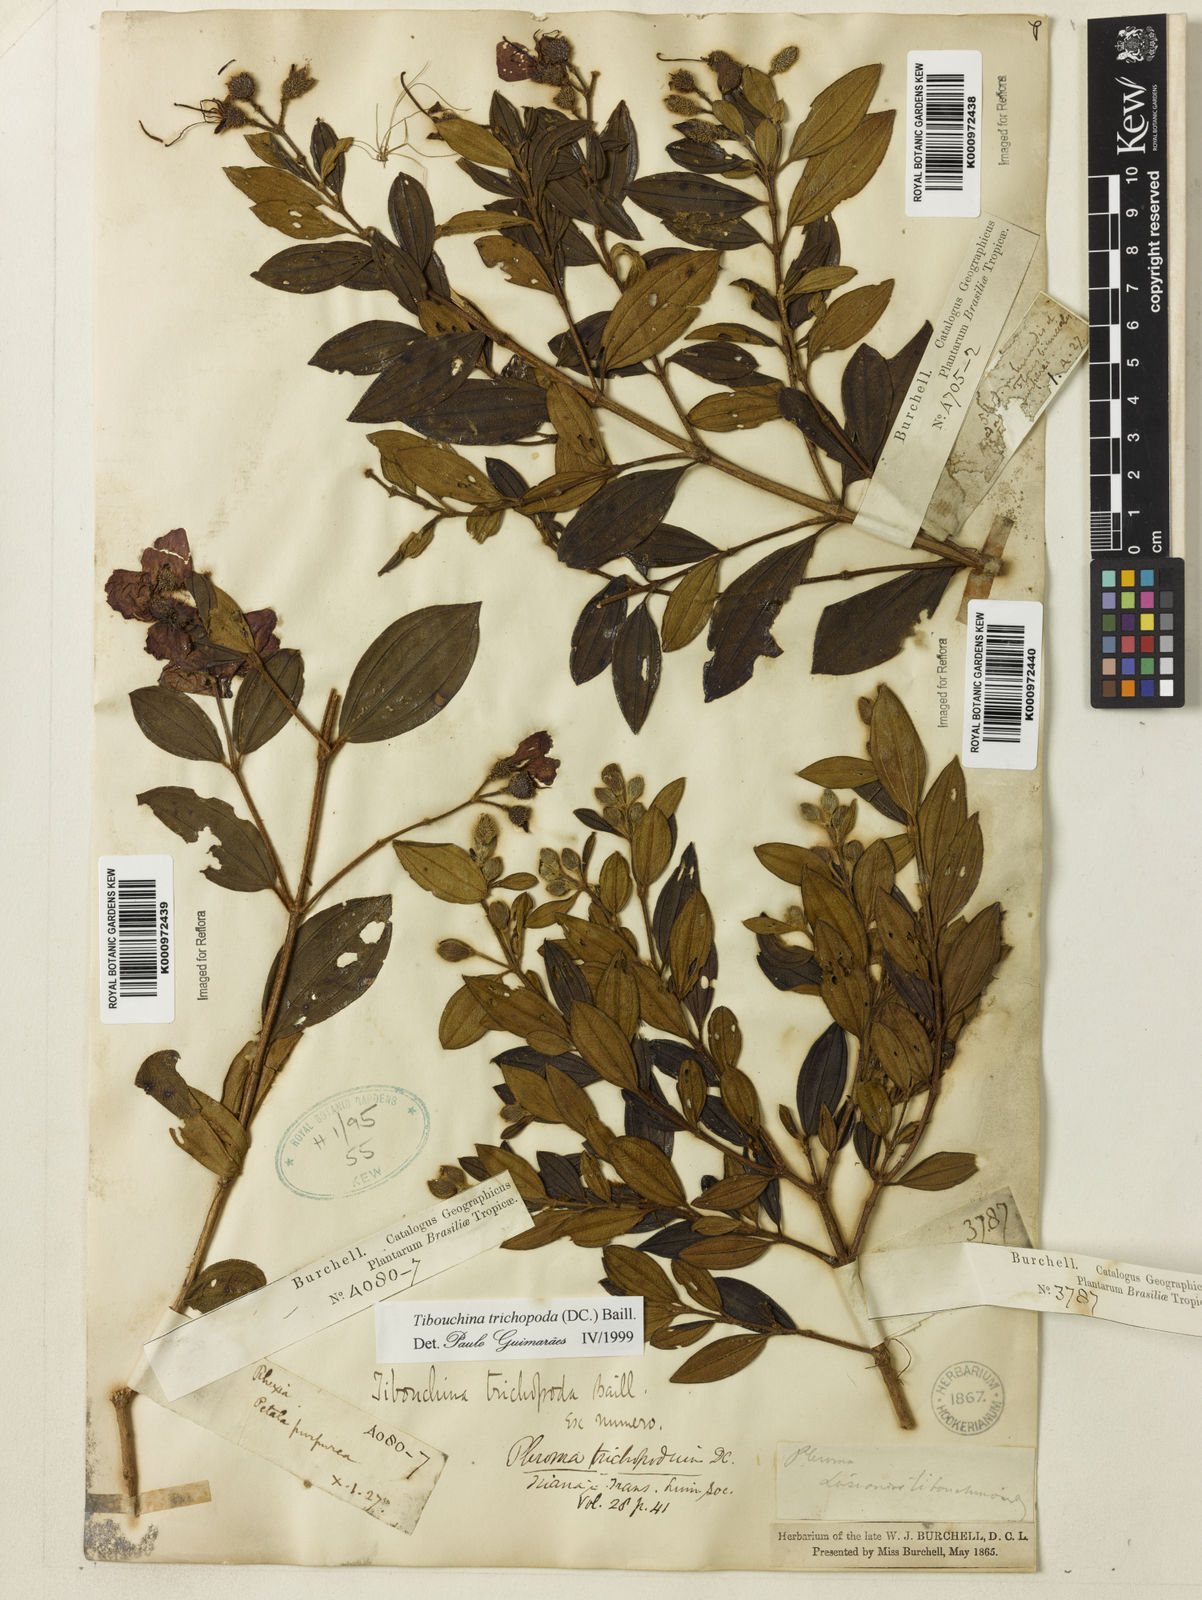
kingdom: Plantae
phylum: Tracheophyta
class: Magnoliopsida
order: Myrtales
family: Melastomataceae
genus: Pleroma
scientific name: Pleroma trichopodum
